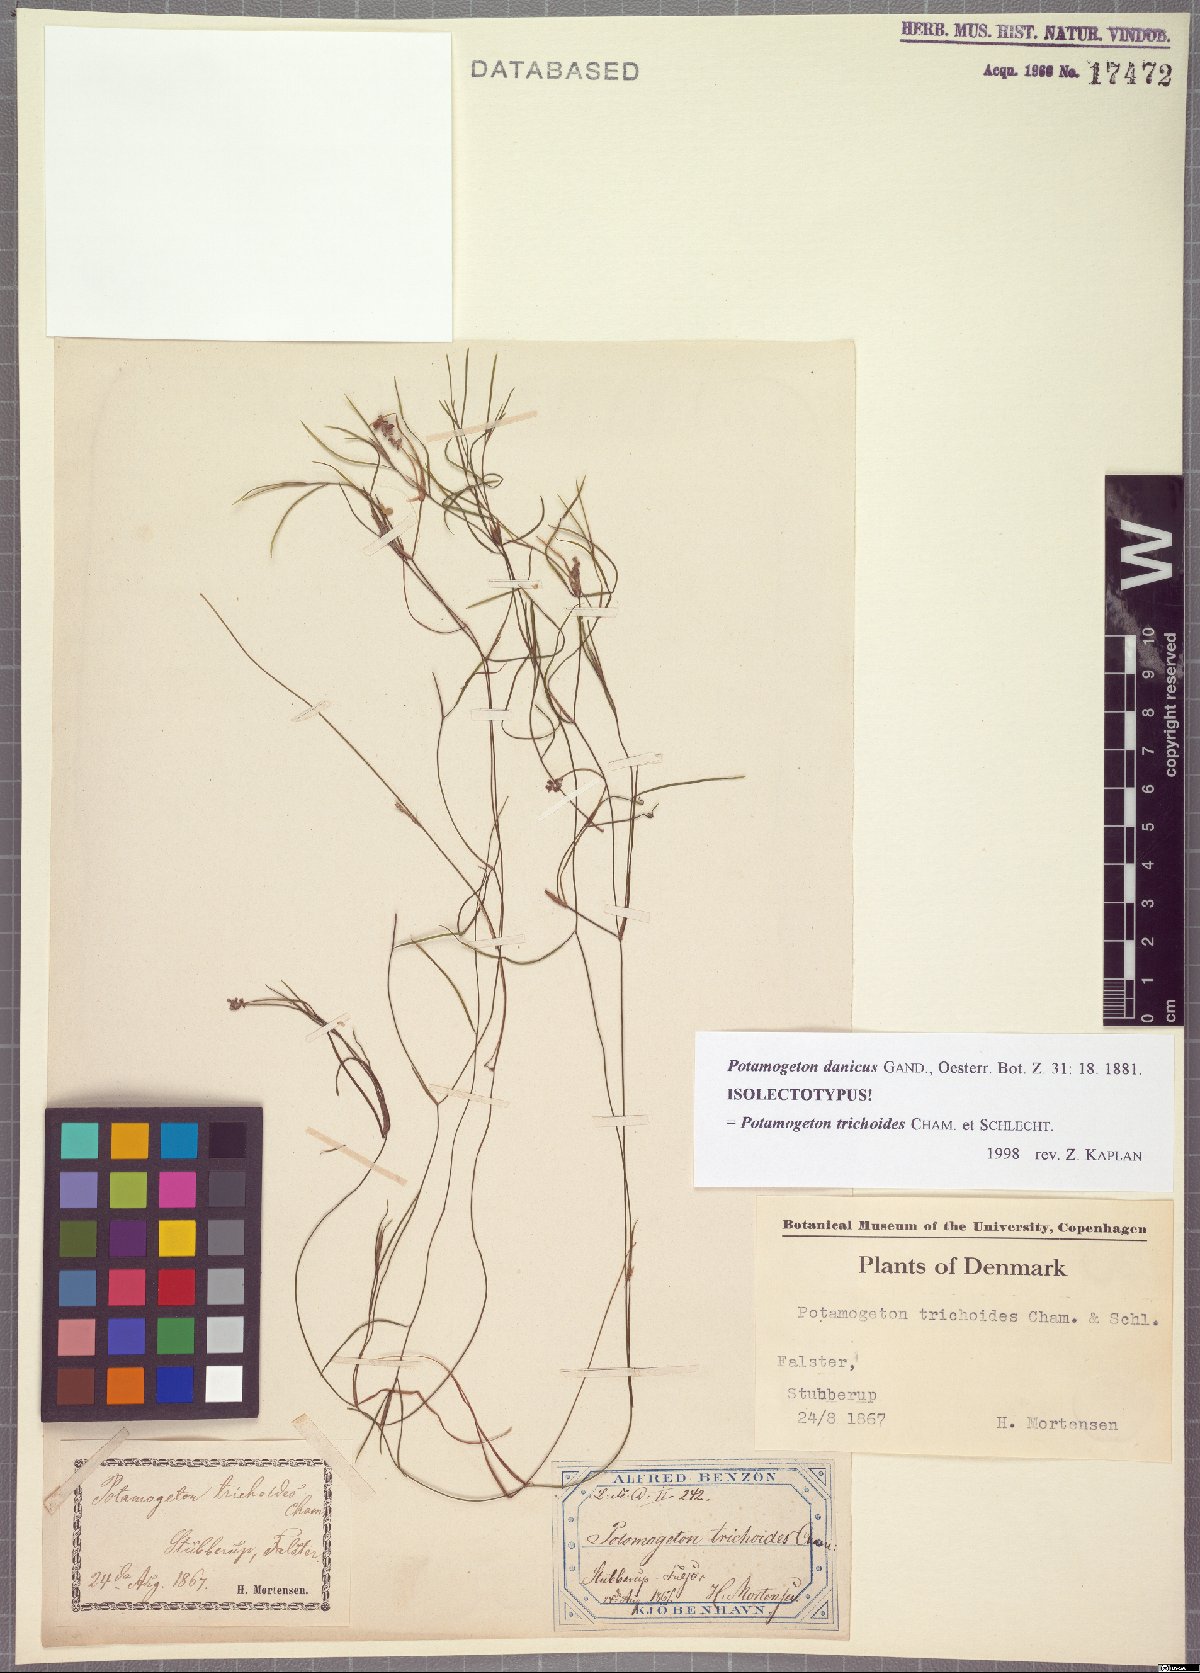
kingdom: Plantae
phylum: Tracheophyta
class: Liliopsida
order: Alismatales
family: Potamogetonaceae
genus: Potamogeton
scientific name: Potamogeton trichoides
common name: Hairlike pondweed
